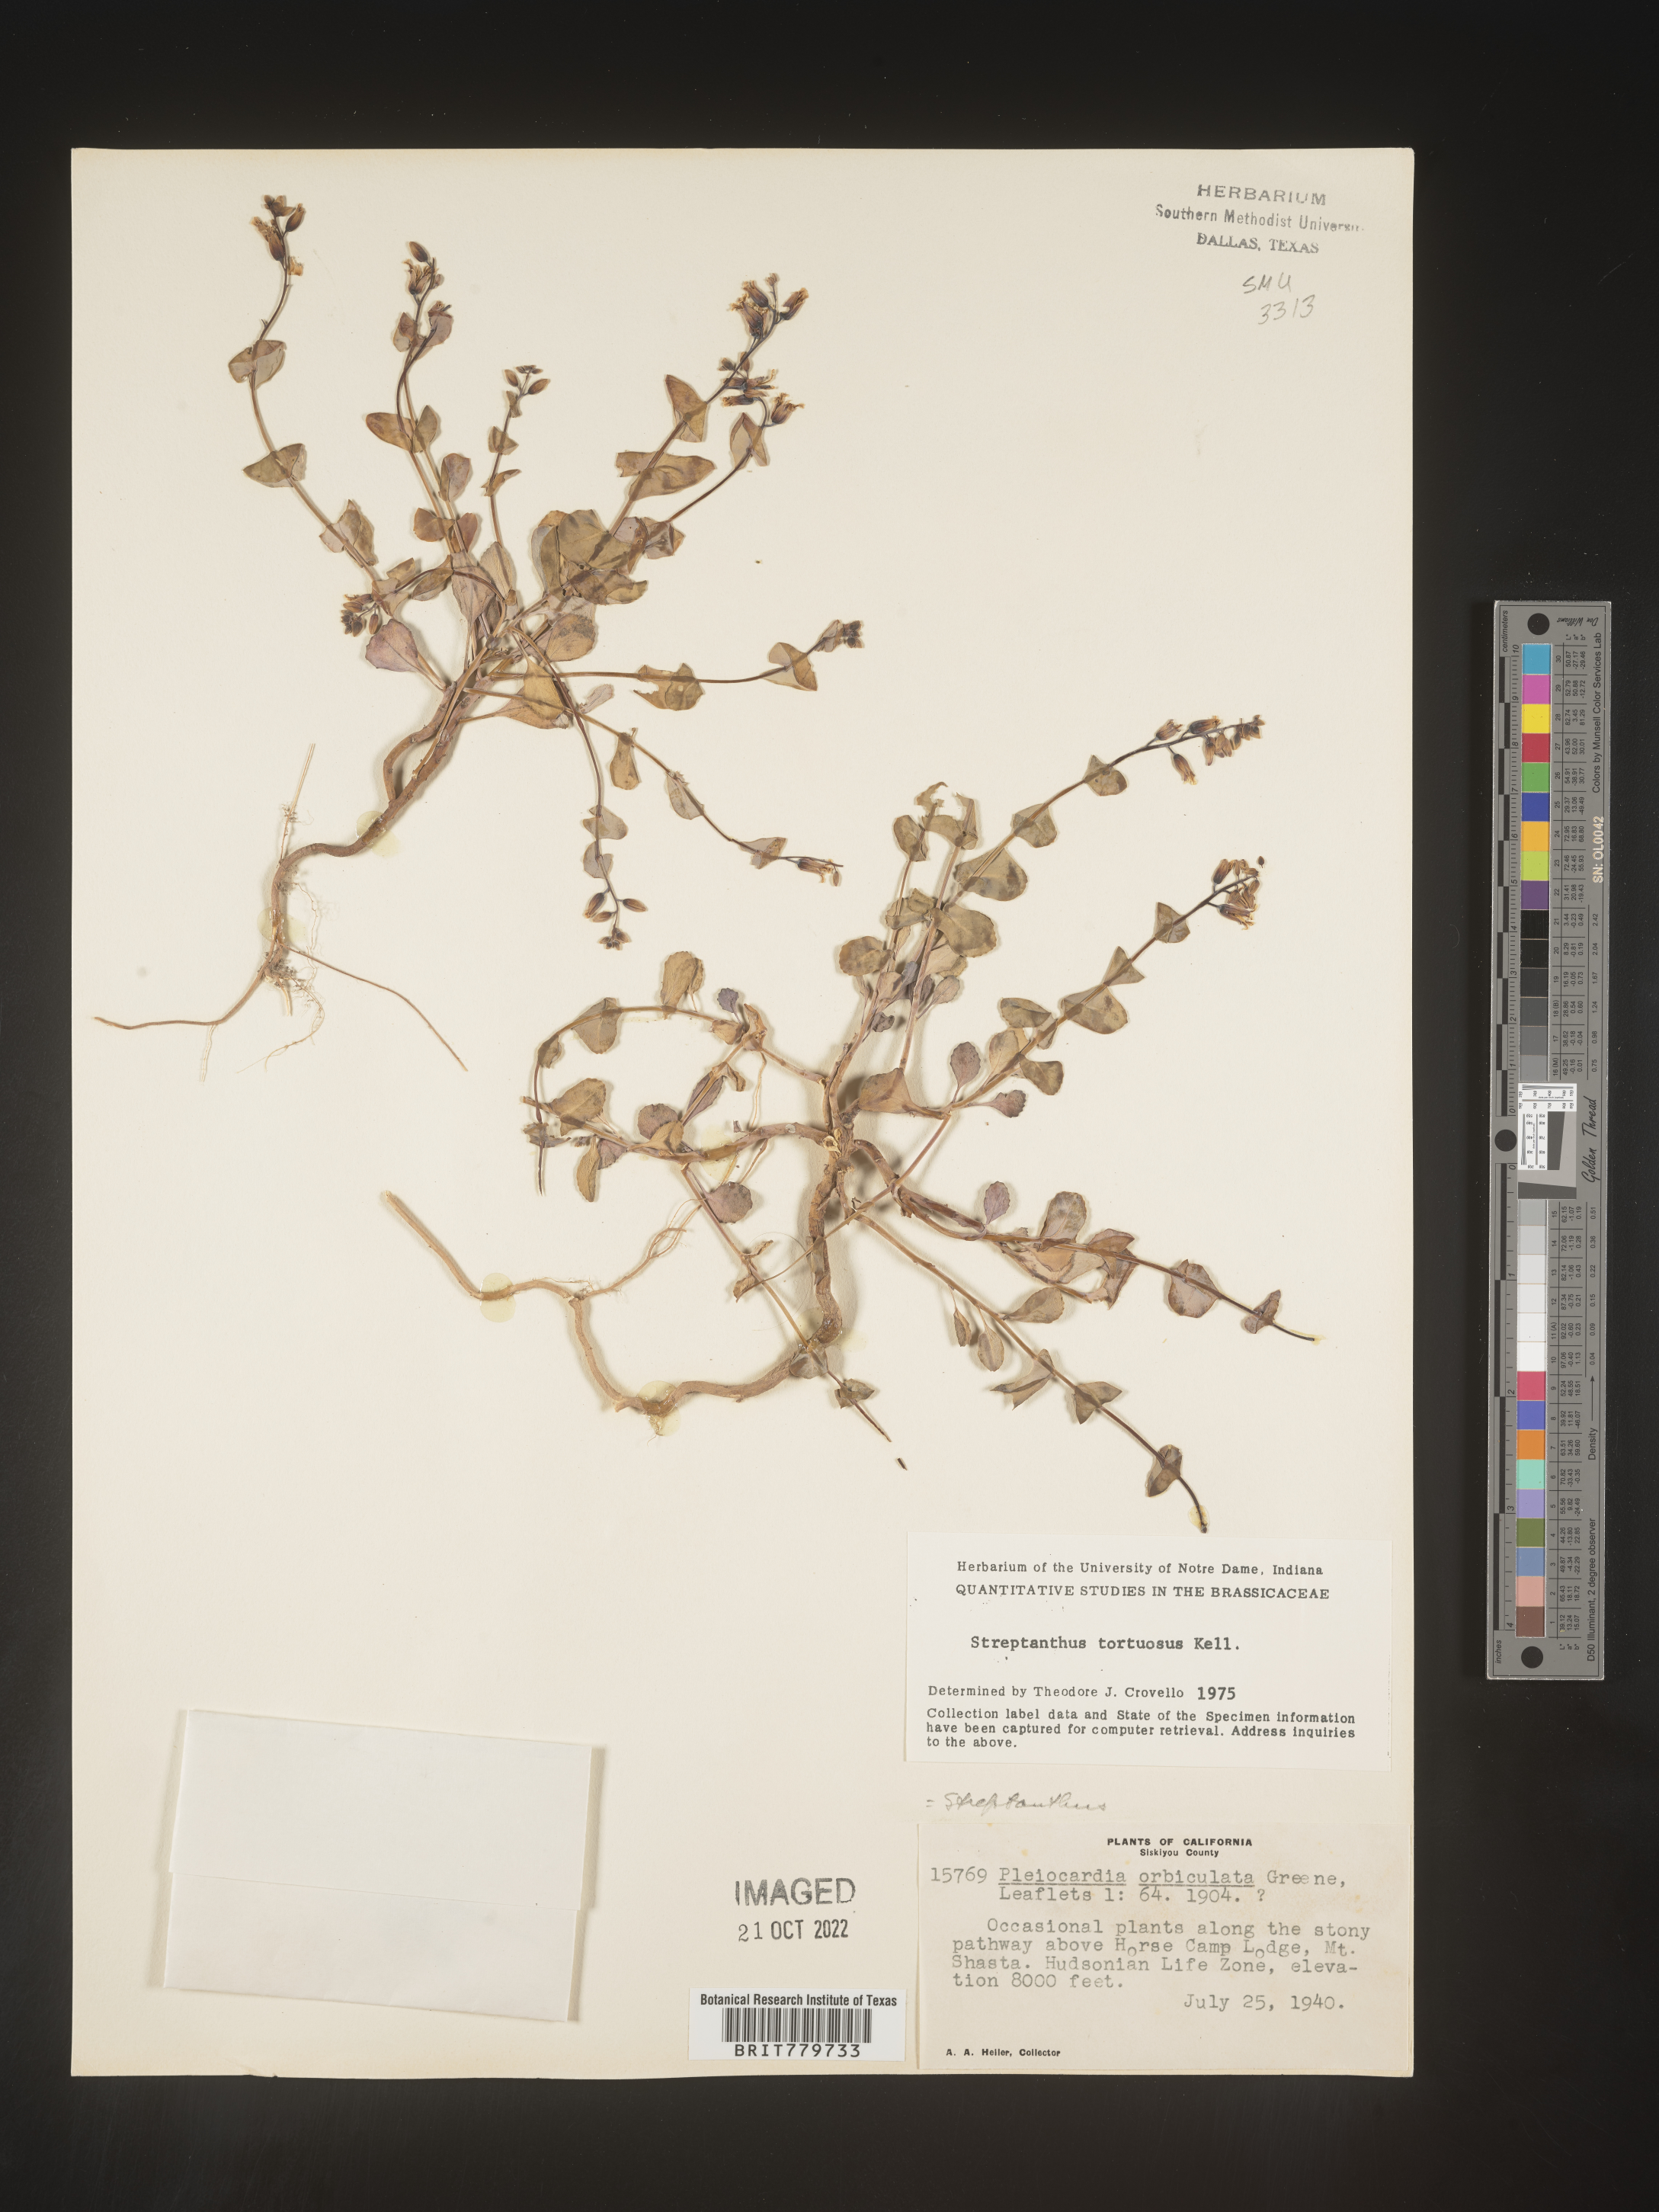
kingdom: Plantae
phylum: Tracheophyta
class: Magnoliopsida
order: Brassicales
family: Brassicaceae
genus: Streptanthus
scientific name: Streptanthus
